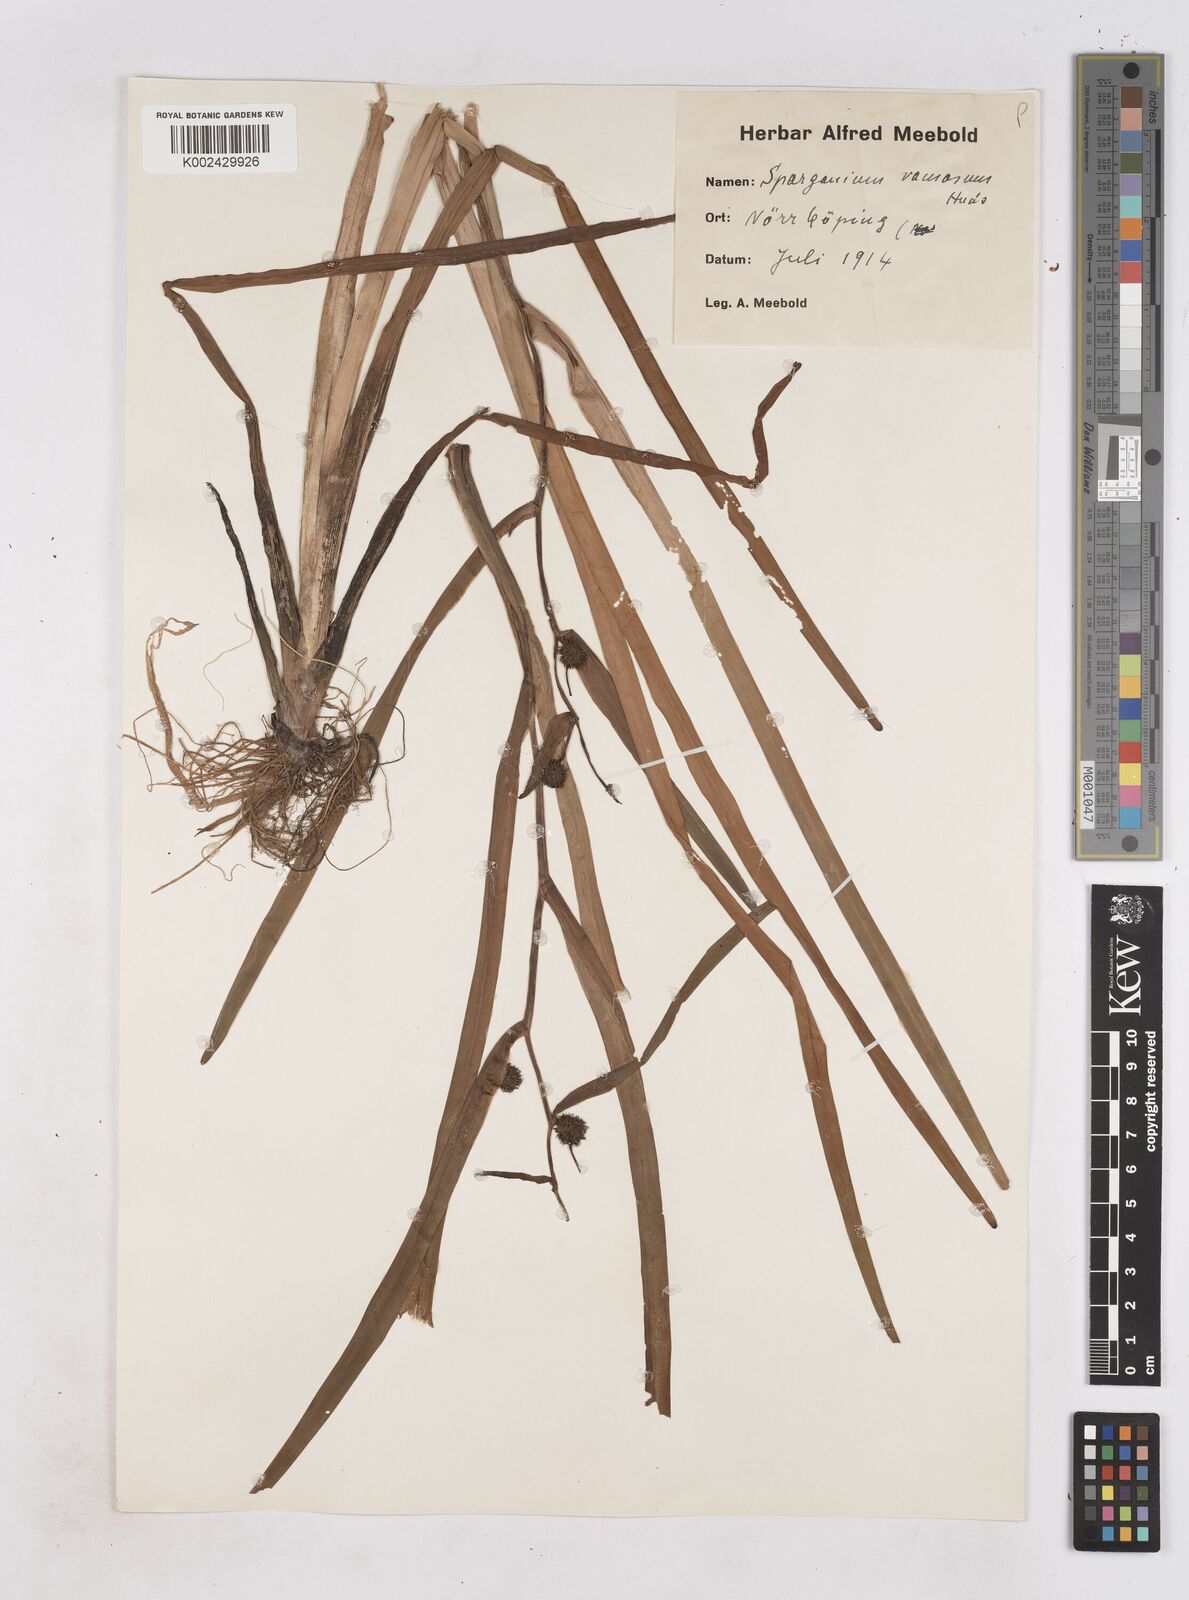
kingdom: Plantae
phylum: Tracheophyta
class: Liliopsida
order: Poales
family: Typhaceae
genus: Sparganium
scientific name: Sparganium erectum
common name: Branched bur-reed
